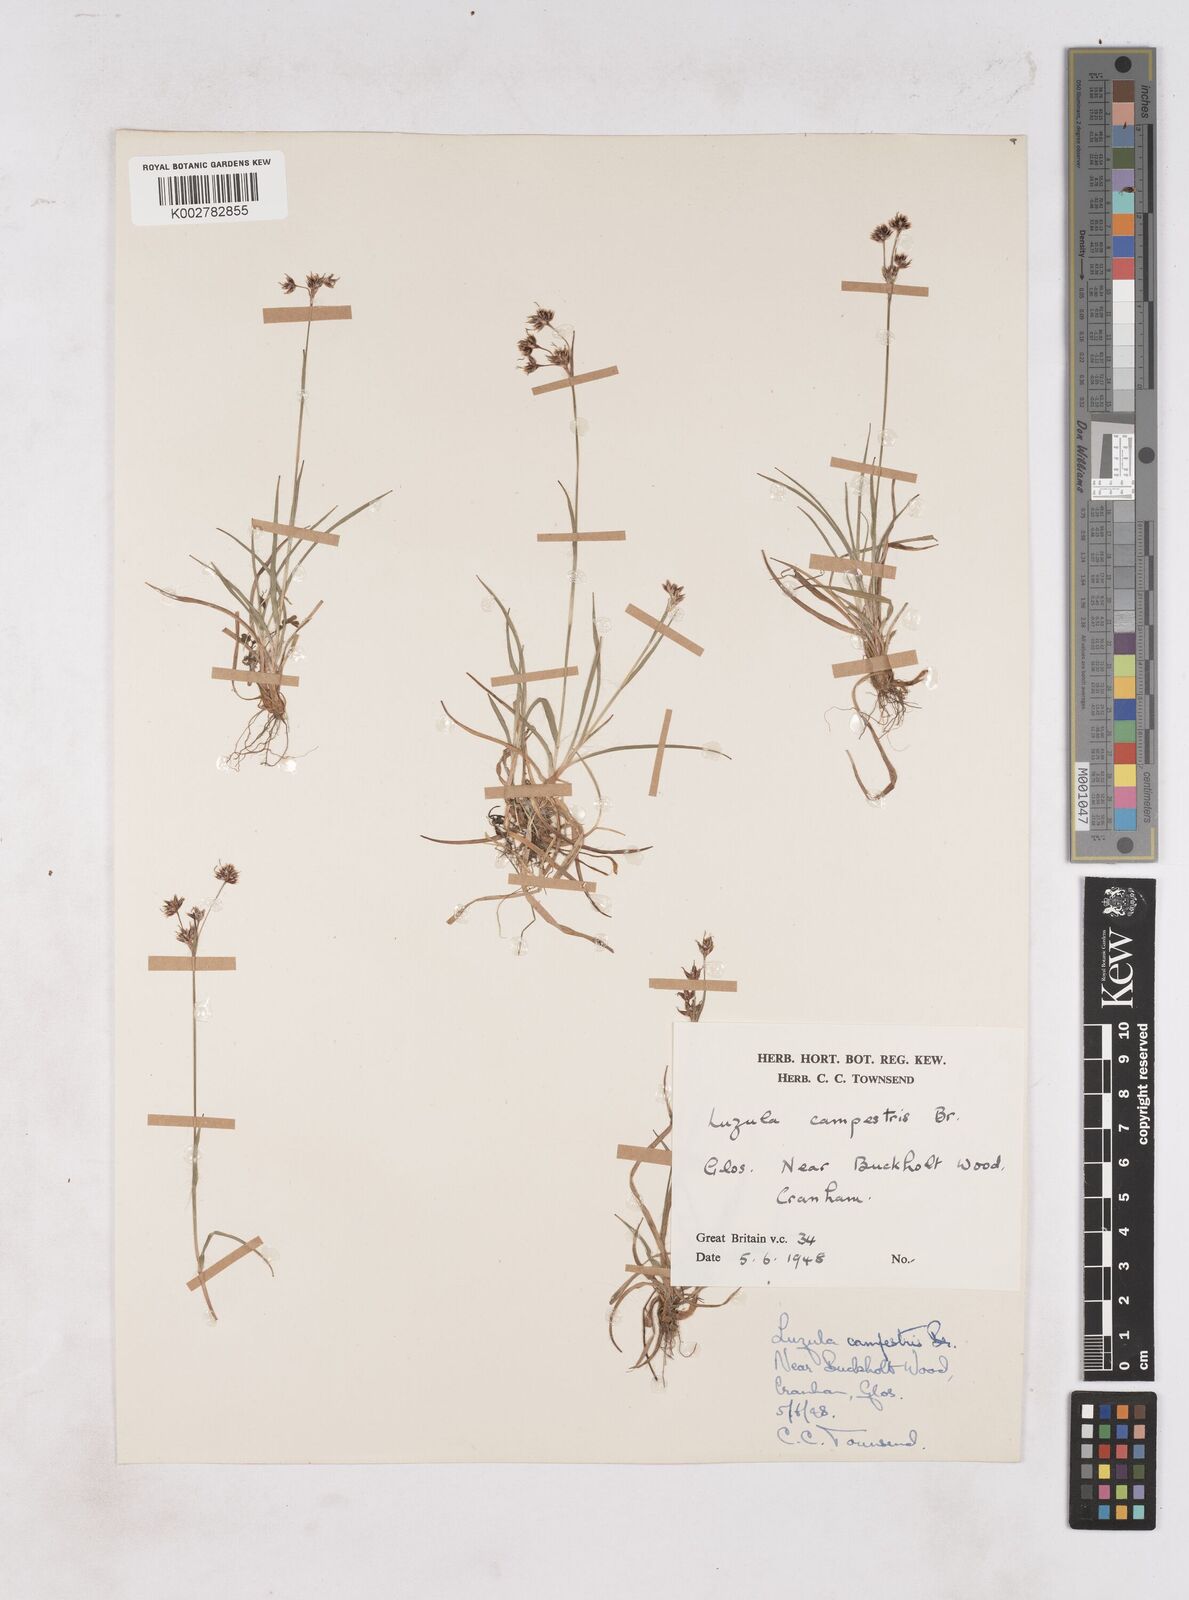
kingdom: Plantae
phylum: Tracheophyta
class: Liliopsida
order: Poales
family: Juncaceae
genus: Luzula
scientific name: Luzula campestris
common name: Field wood-rush
